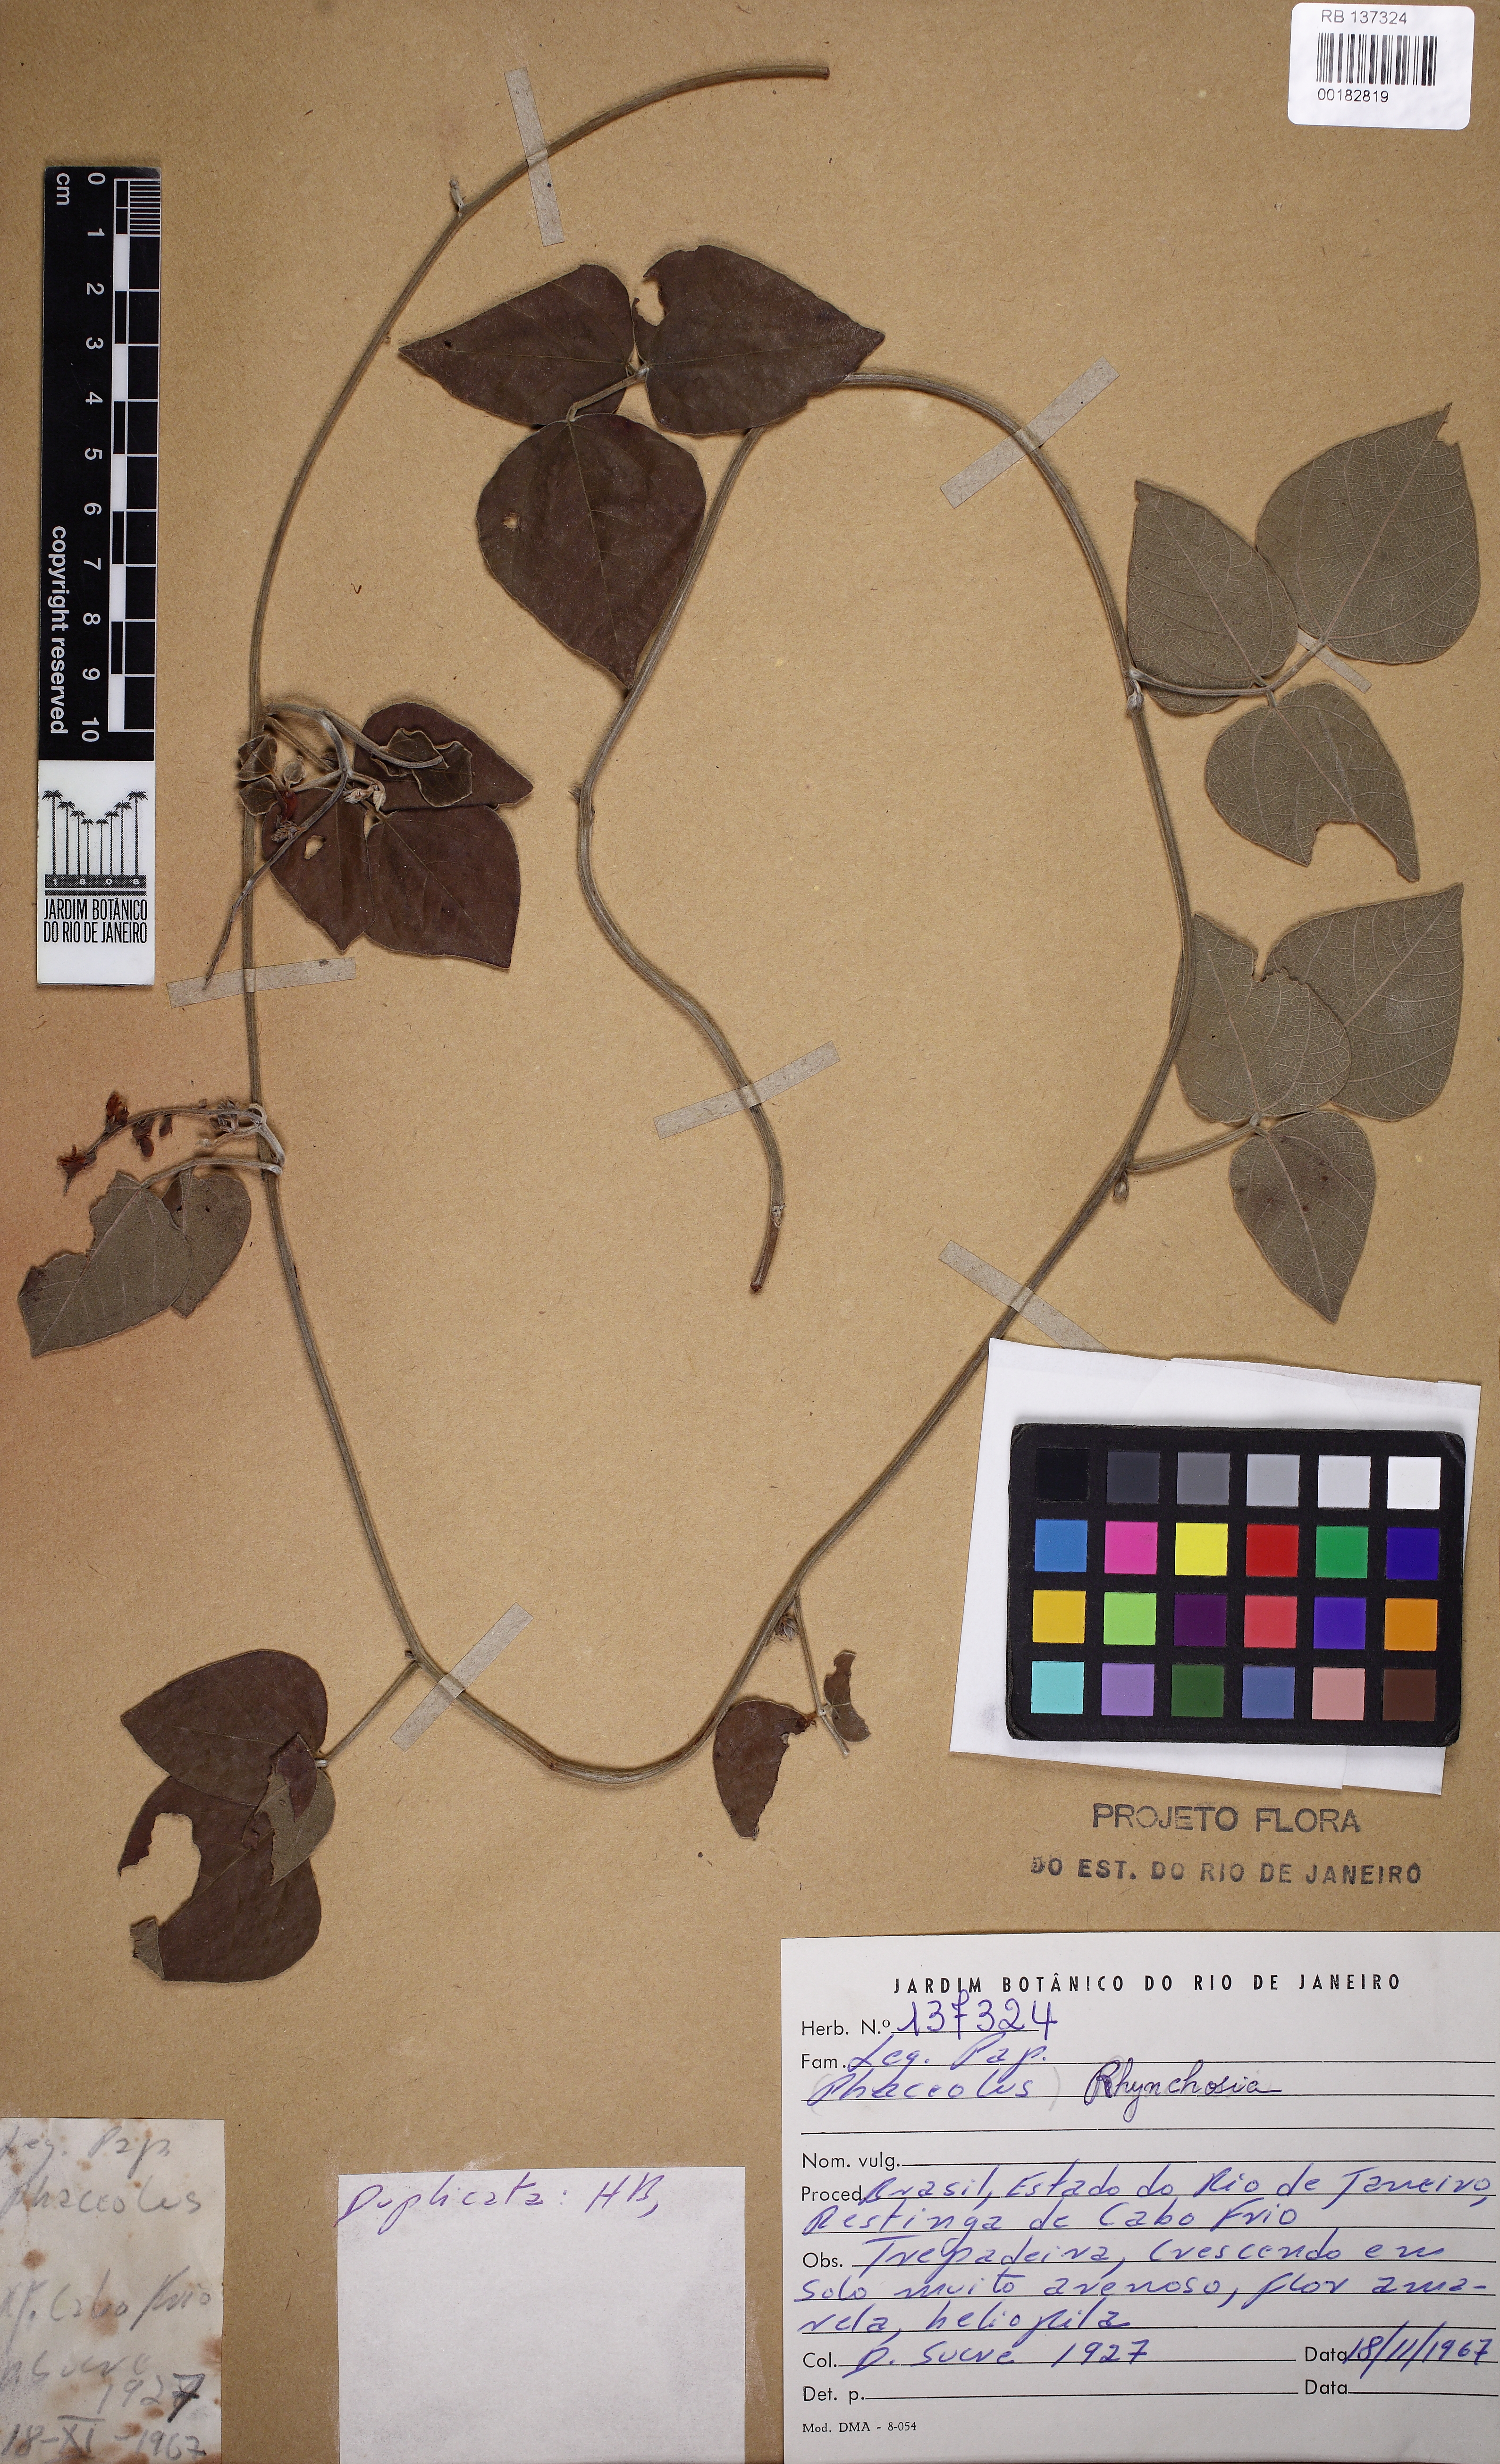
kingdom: Plantae
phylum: Tracheophyta
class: Magnoliopsida
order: Fabales
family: Fabaceae
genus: Rhynchosia
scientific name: Rhynchosia naineckensis
